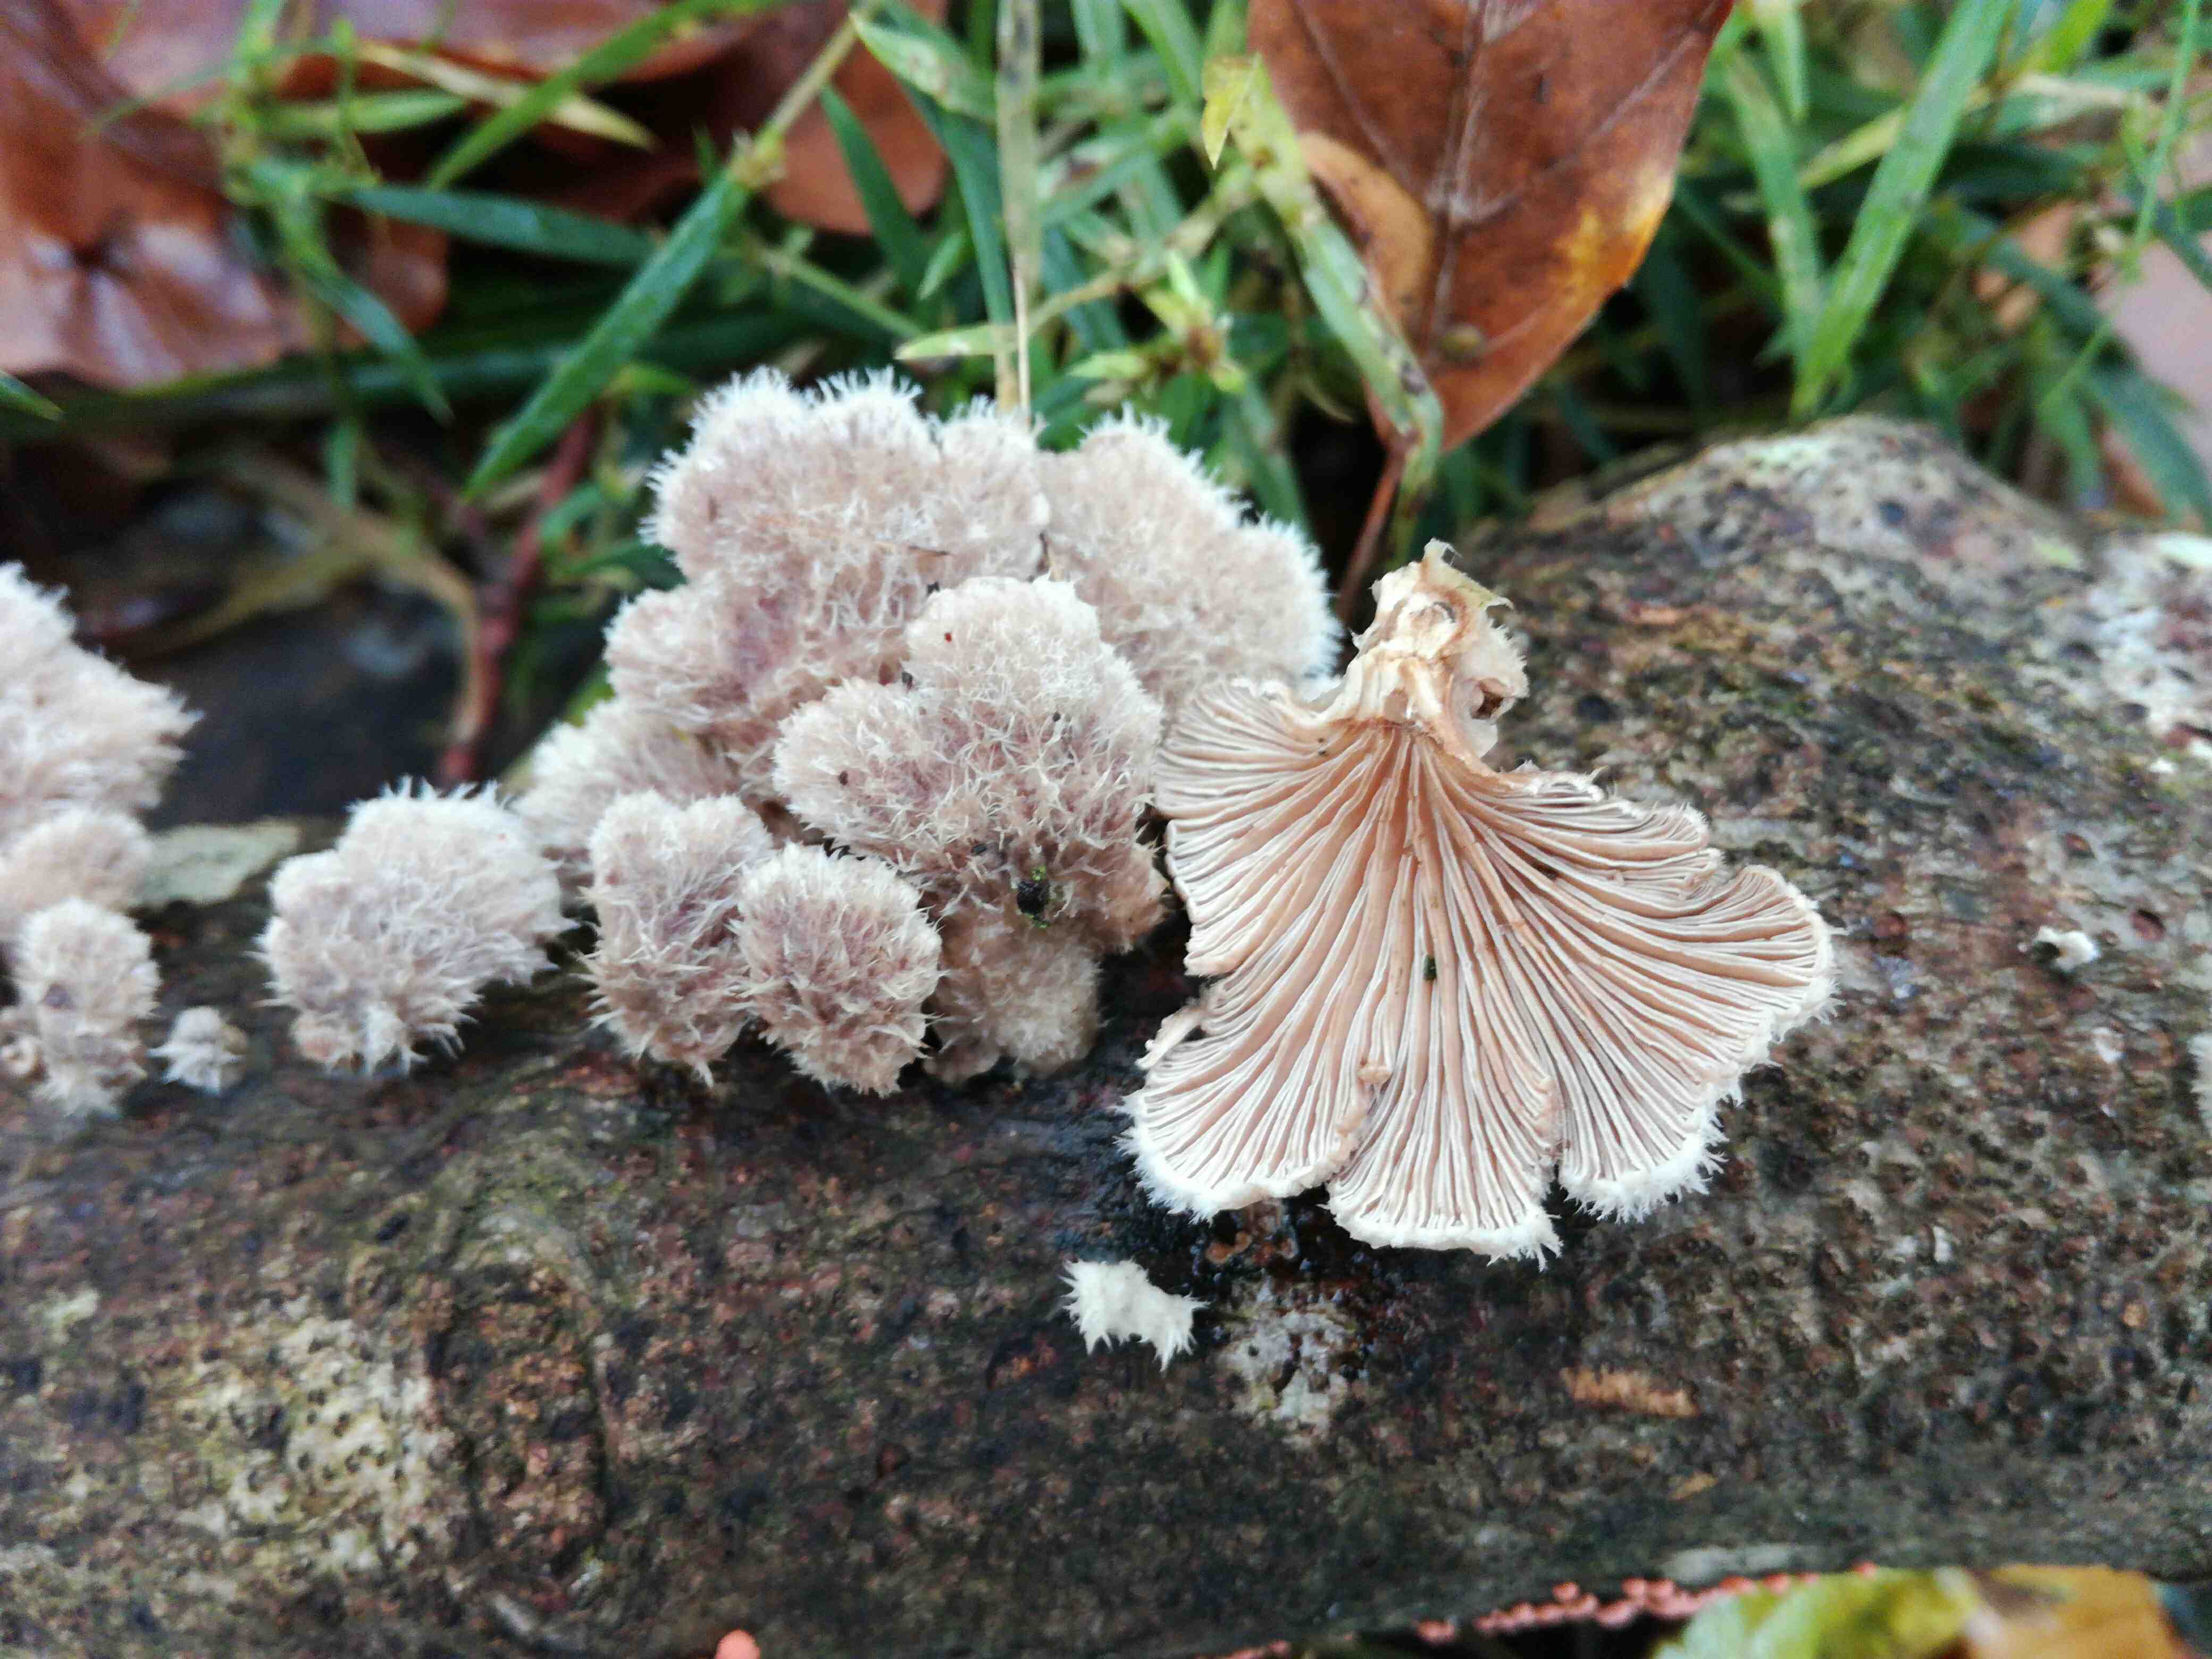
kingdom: Fungi
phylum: Basidiomycota
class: Agaricomycetes
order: Agaricales
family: Schizophyllaceae
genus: Schizophyllum
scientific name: Schizophyllum commune
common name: kløvblad
